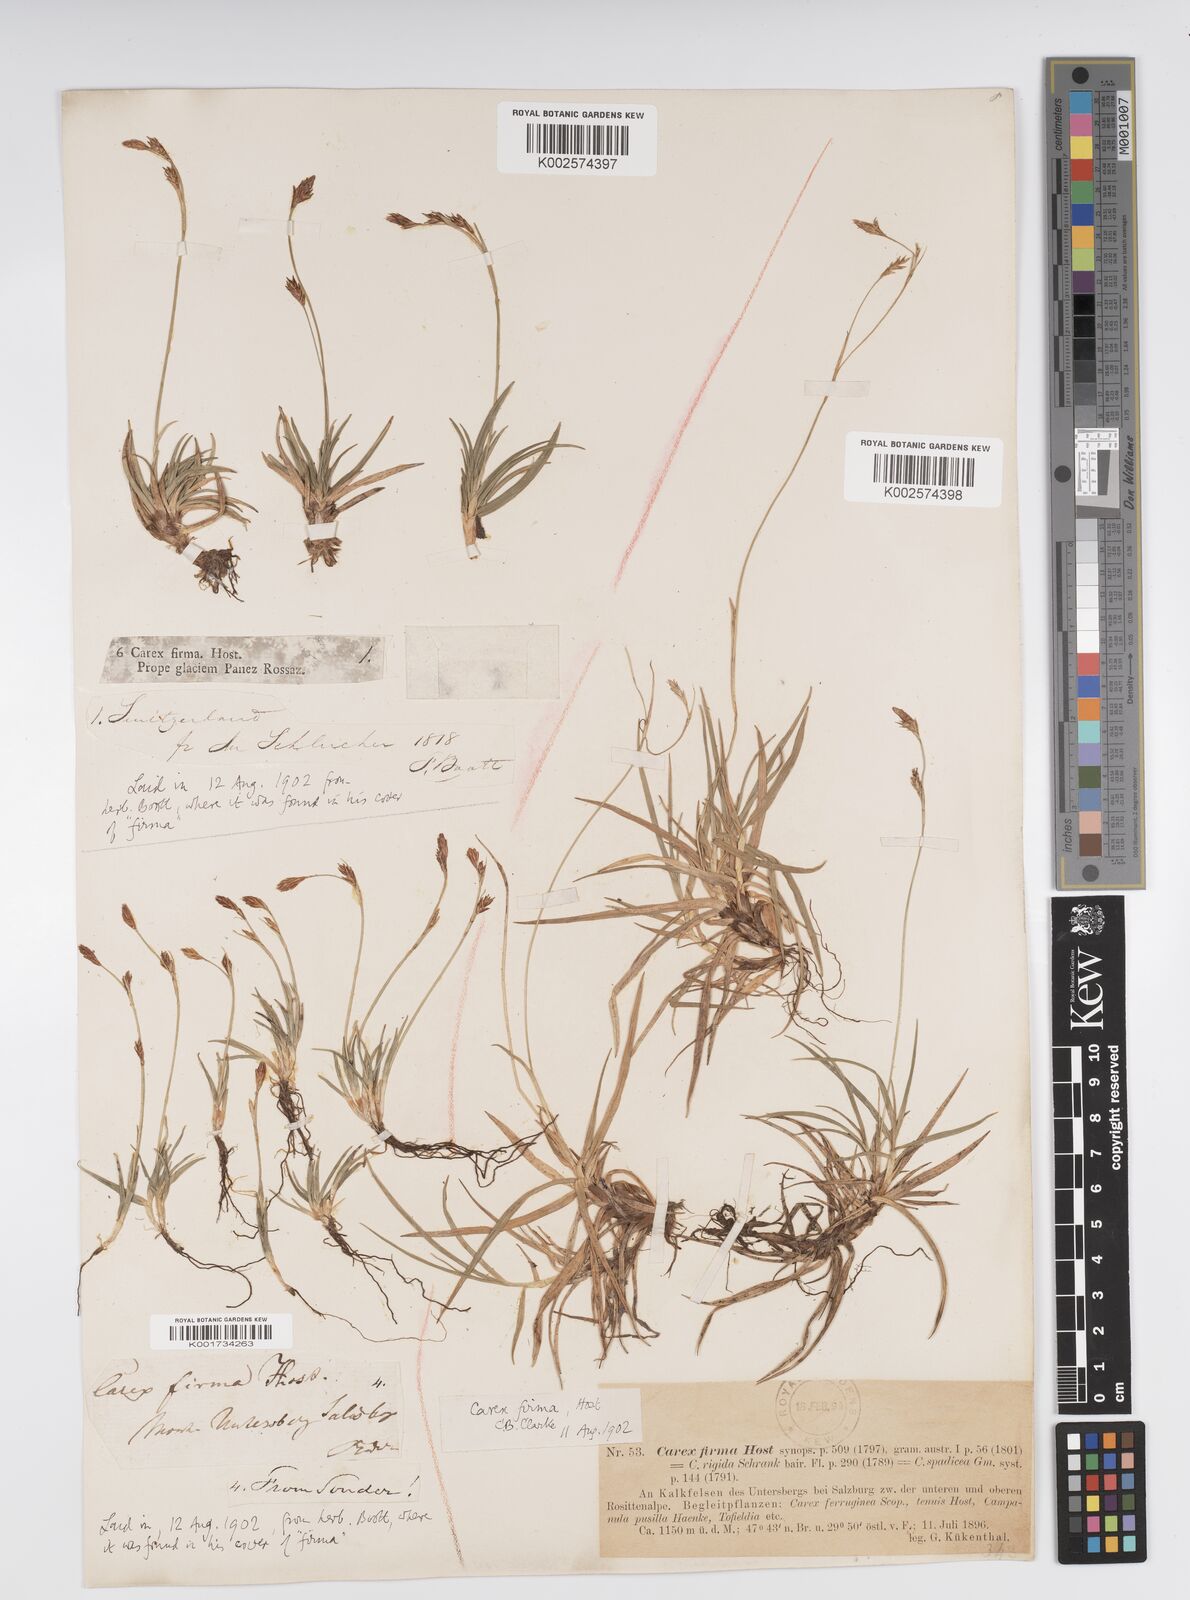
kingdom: Plantae
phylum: Tracheophyta
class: Liliopsida
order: Poales
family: Cyperaceae
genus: Carex
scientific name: Carex firma
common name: Dwarf pillow sedge
